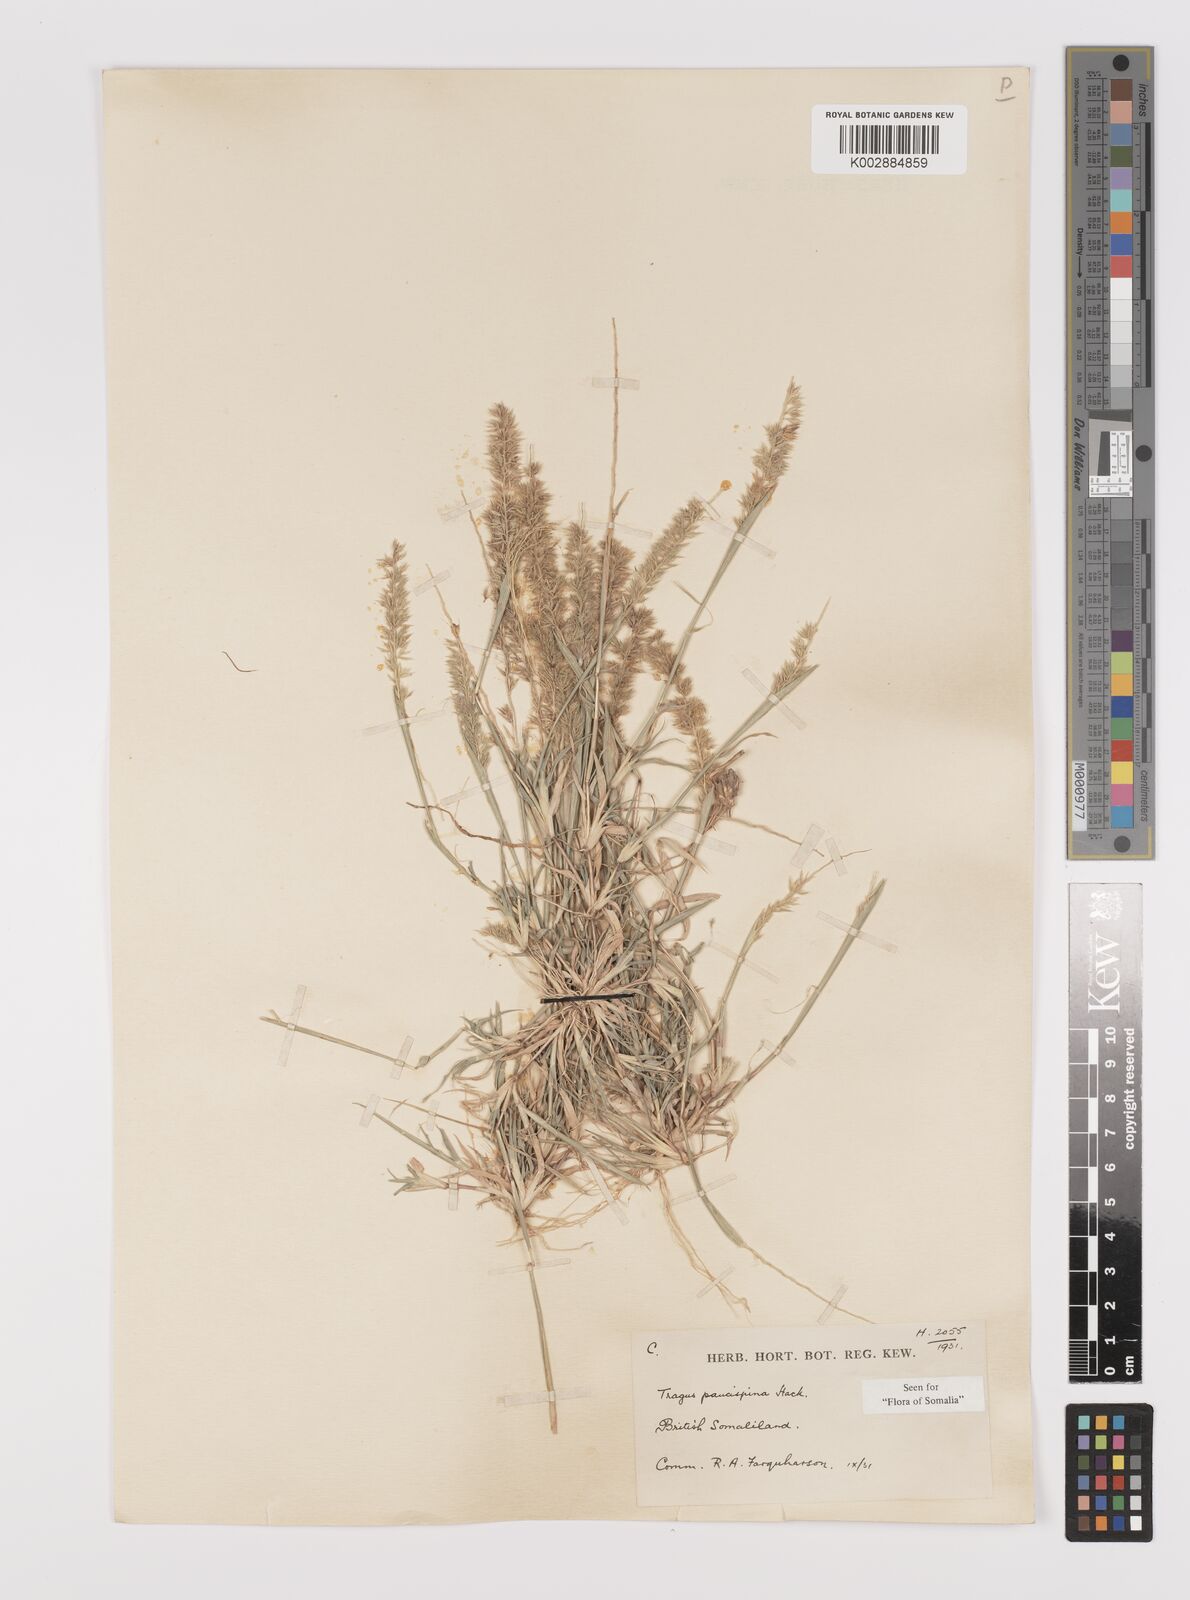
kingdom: Plantae
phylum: Tracheophyta
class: Liliopsida
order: Poales
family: Poaceae
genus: Tragus
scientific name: Tragus racemosus
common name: European bur-grass
